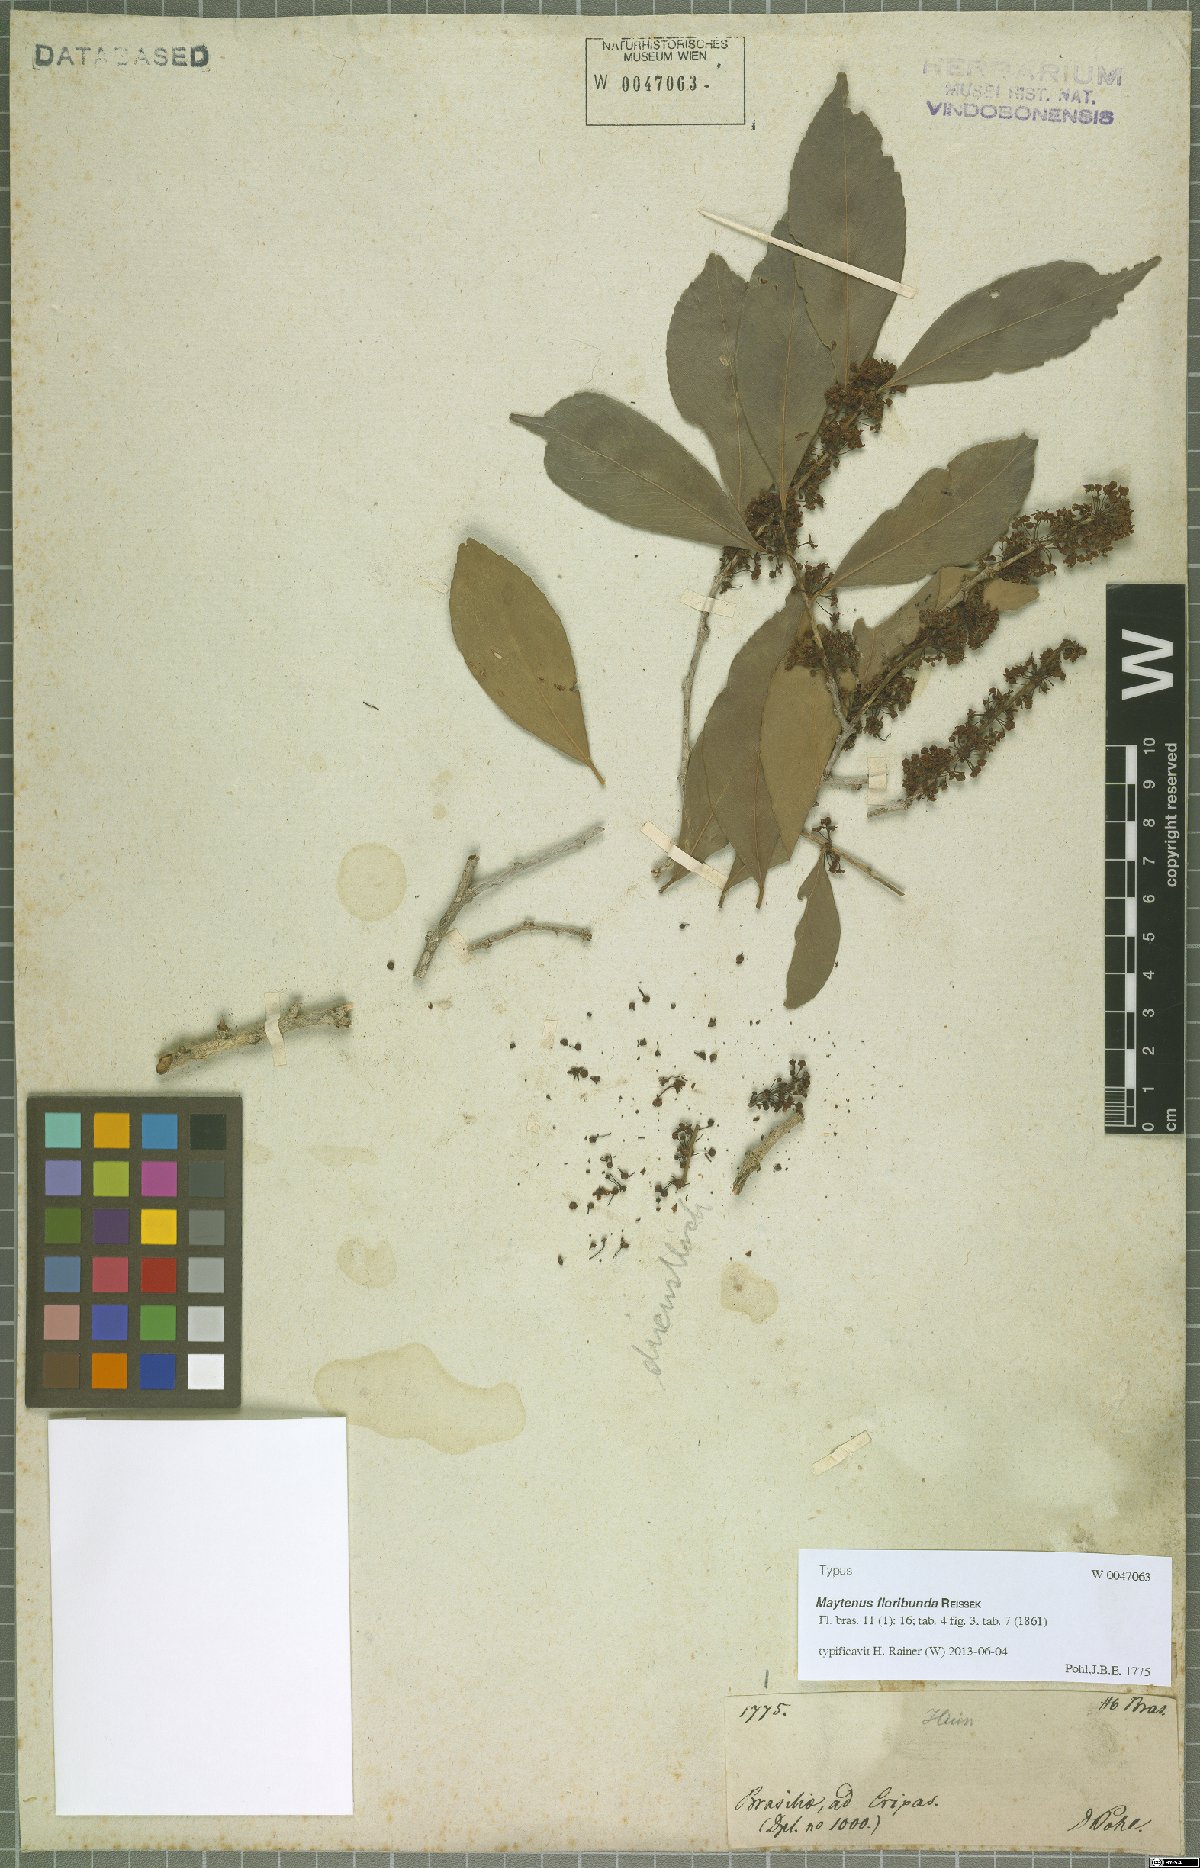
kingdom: Plantae
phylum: Tracheophyta
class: Magnoliopsida
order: Celastrales
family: Celastraceae
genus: Monteverdia
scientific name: Monteverdia floribunda
